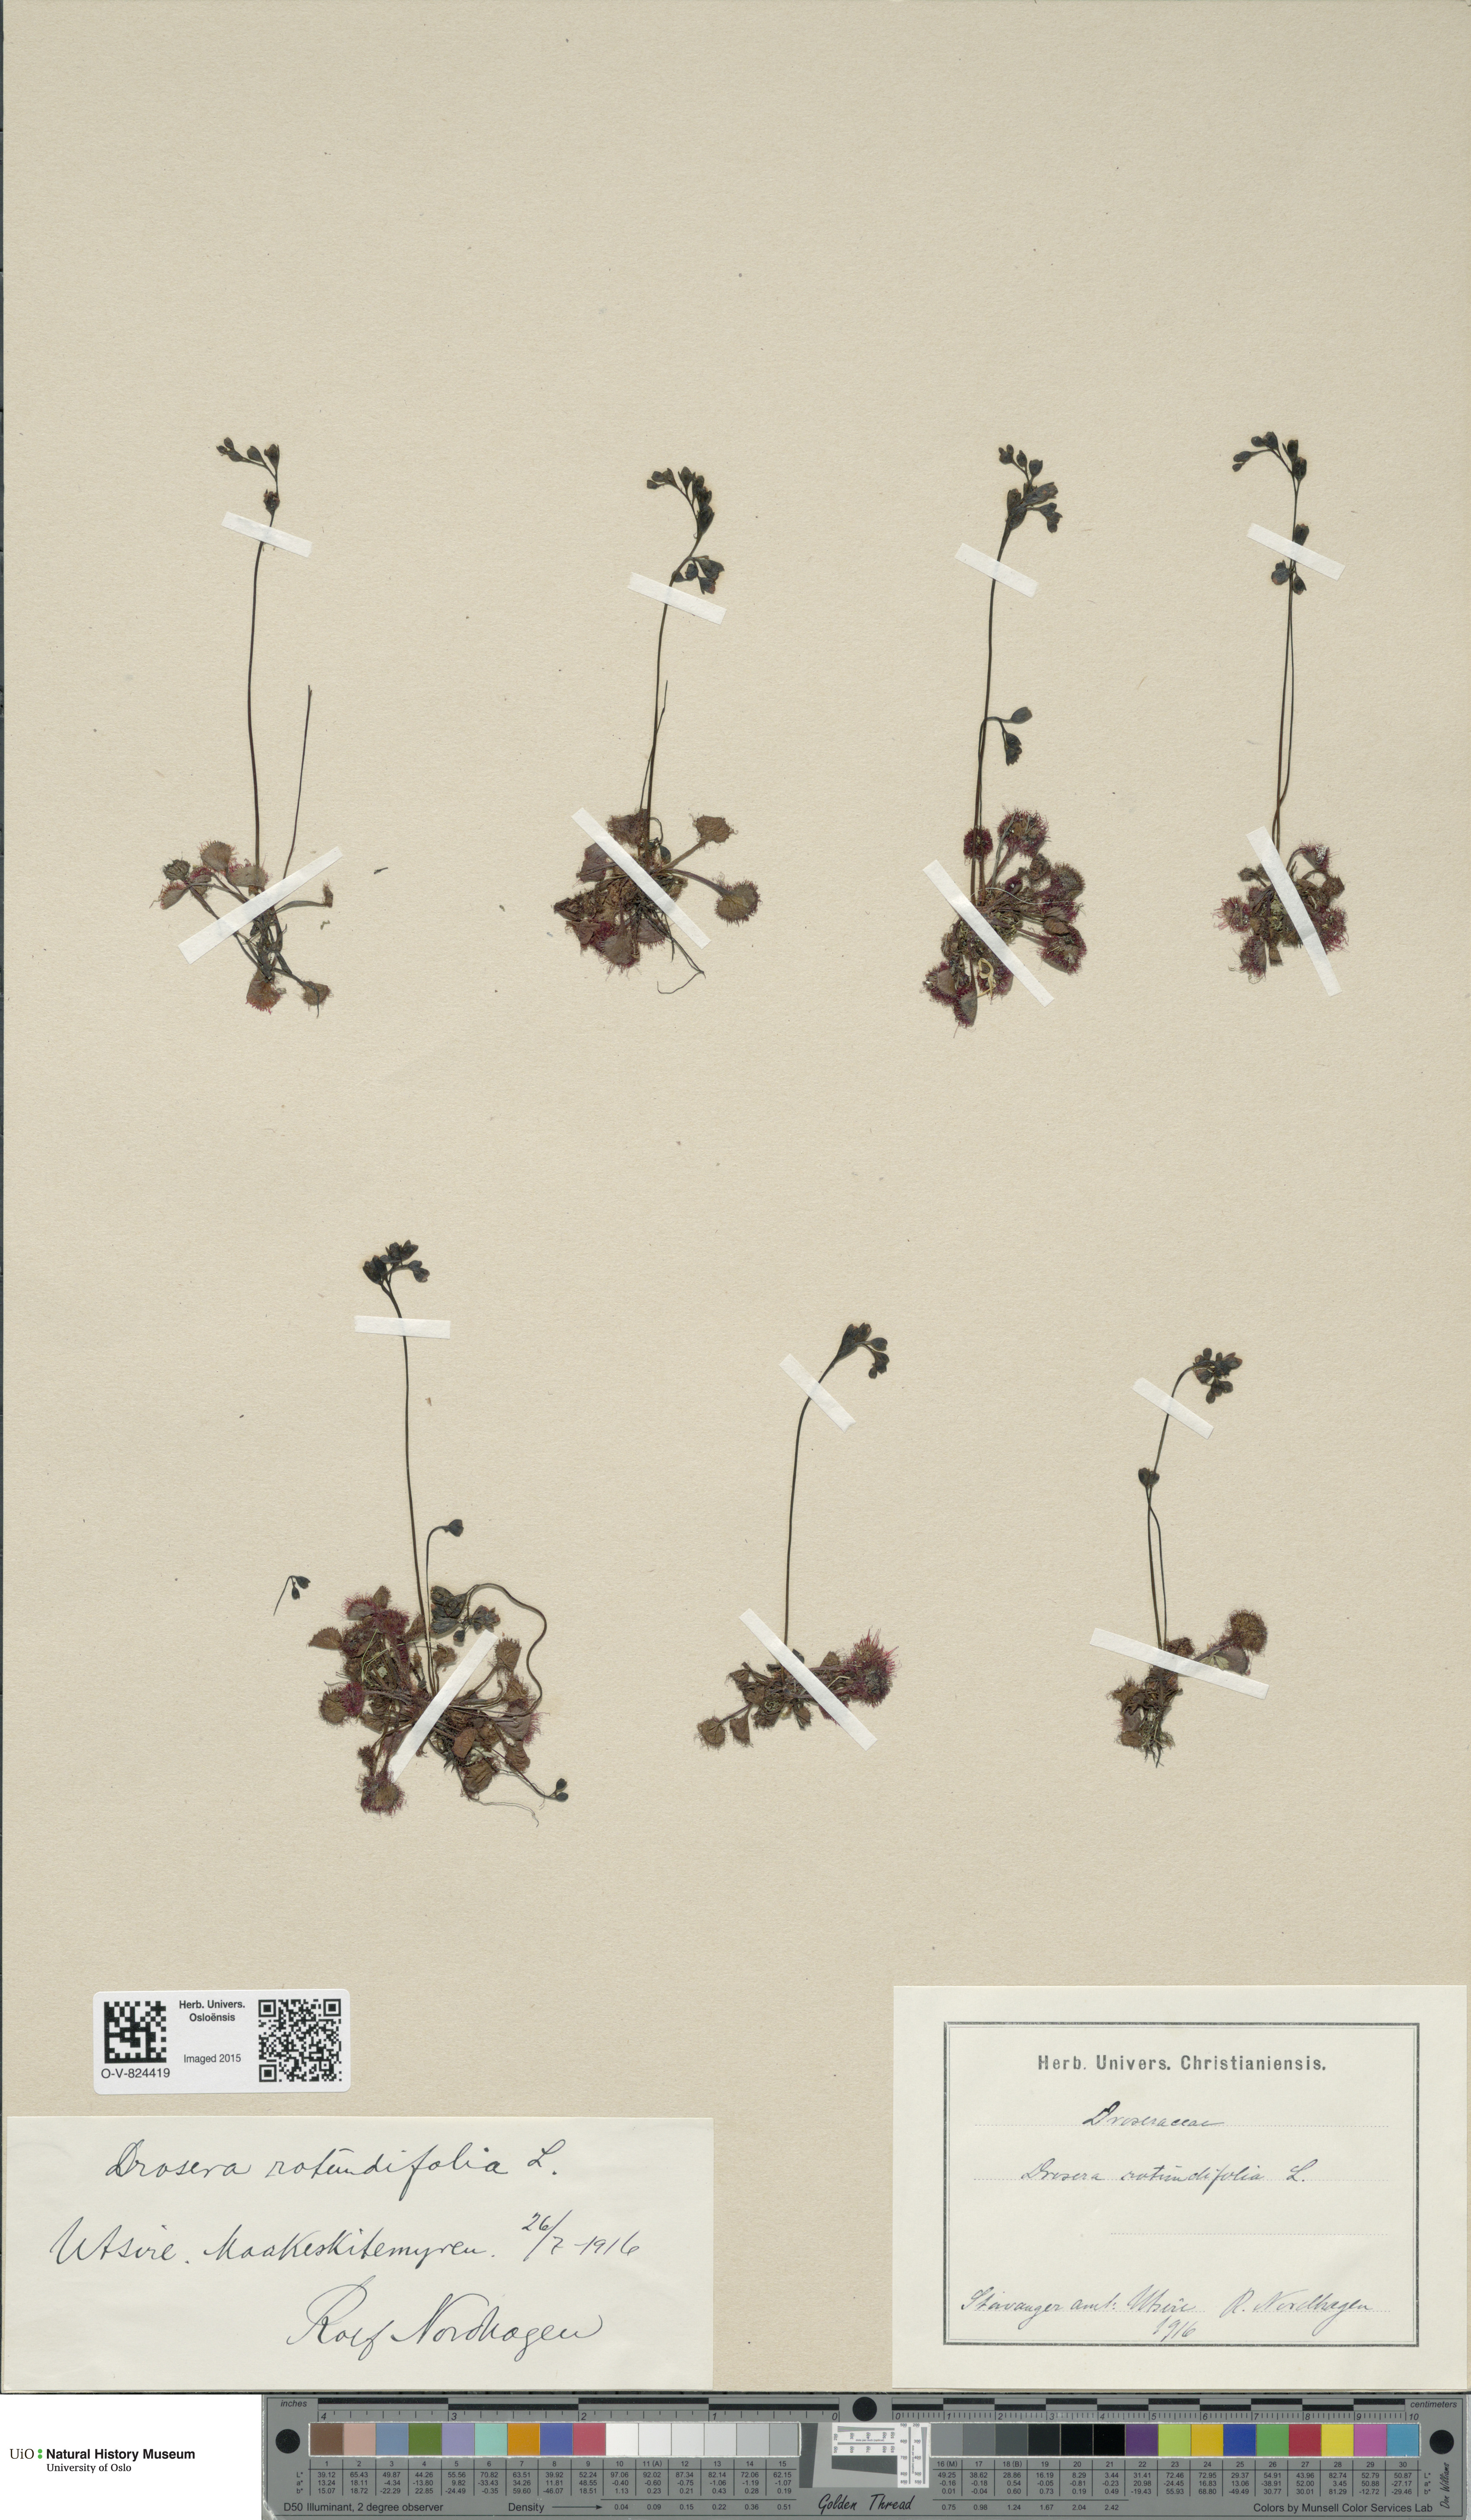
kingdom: Plantae
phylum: Tracheophyta
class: Magnoliopsida
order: Caryophyllales
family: Droseraceae
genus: Drosera
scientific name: Drosera rotundifolia
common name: Round-leaved sundew
